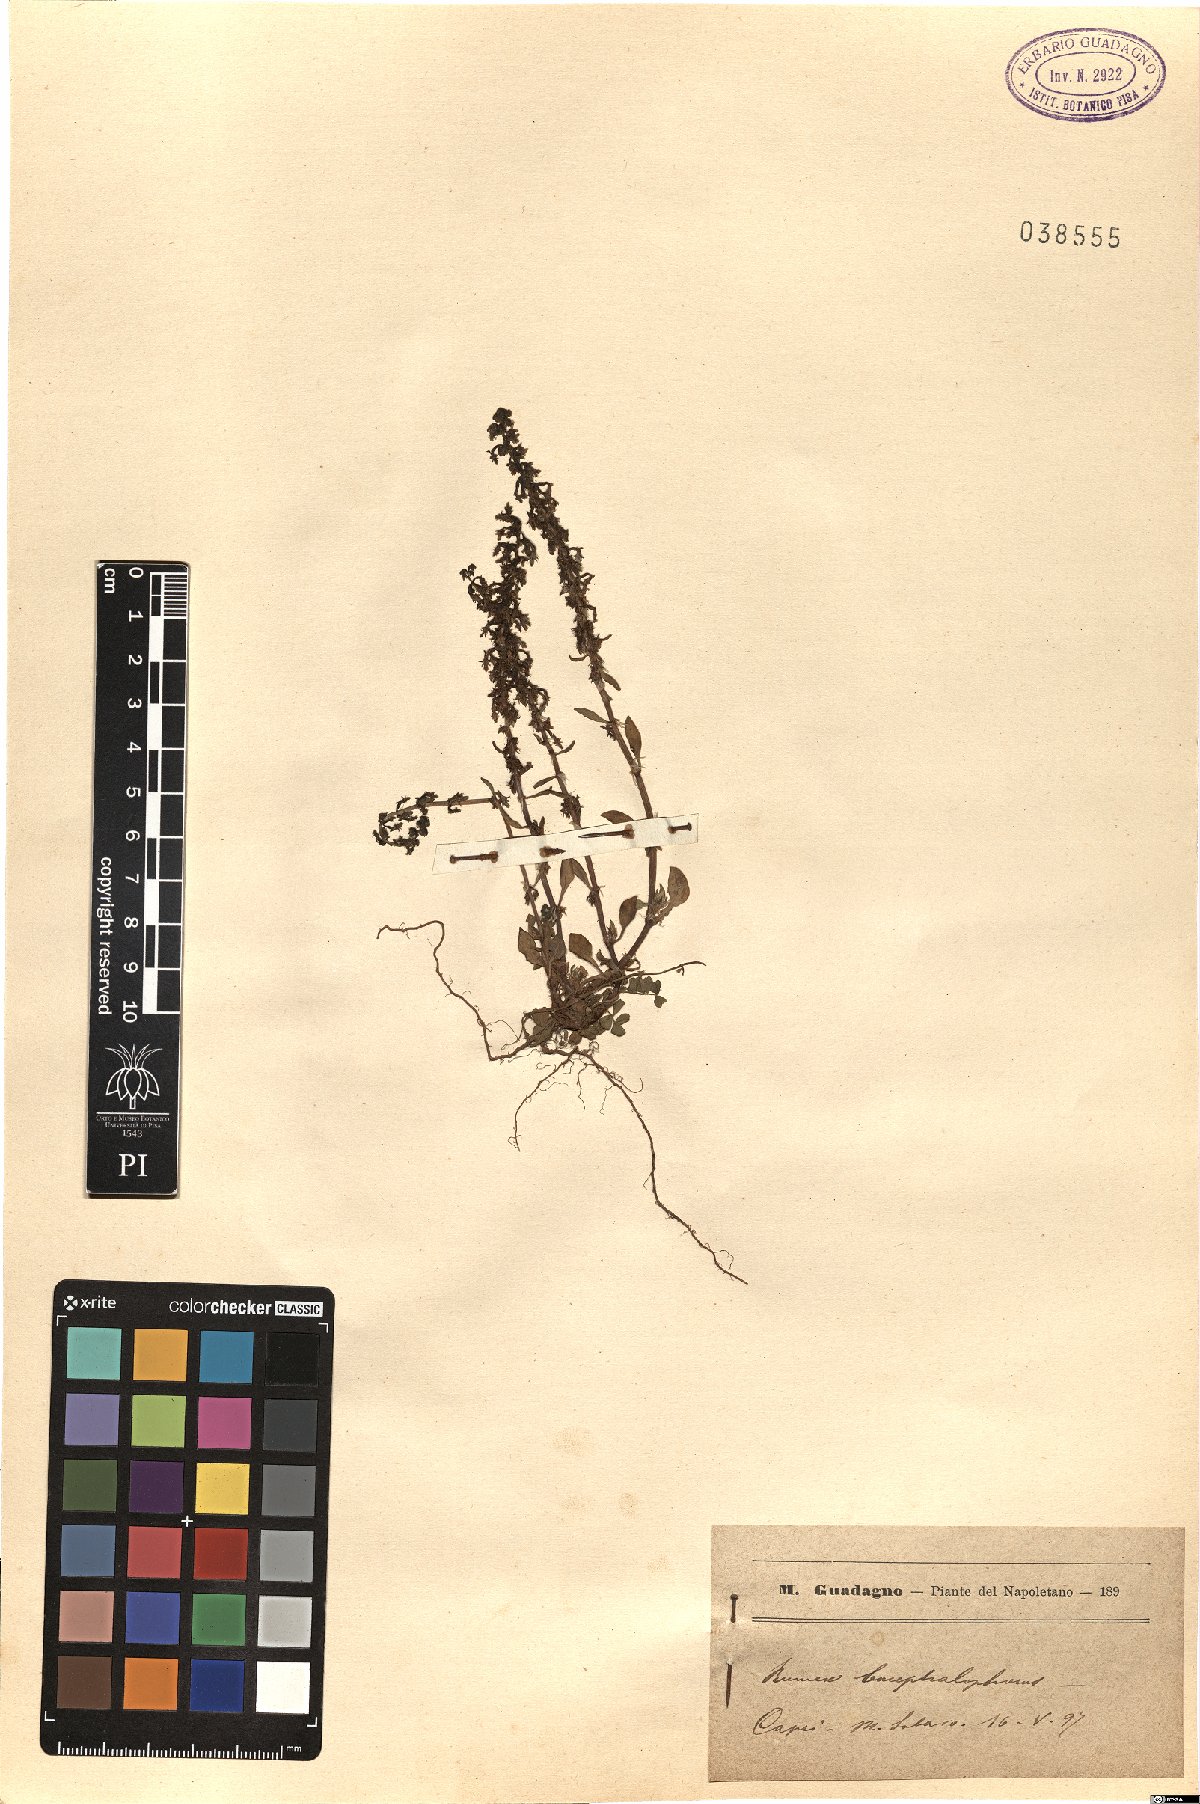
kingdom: Plantae
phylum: Tracheophyta
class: Magnoliopsida
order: Caryophyllales
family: Polygonaceae
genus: Rumex
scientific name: Rumex bucephalophorus
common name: Red dock
